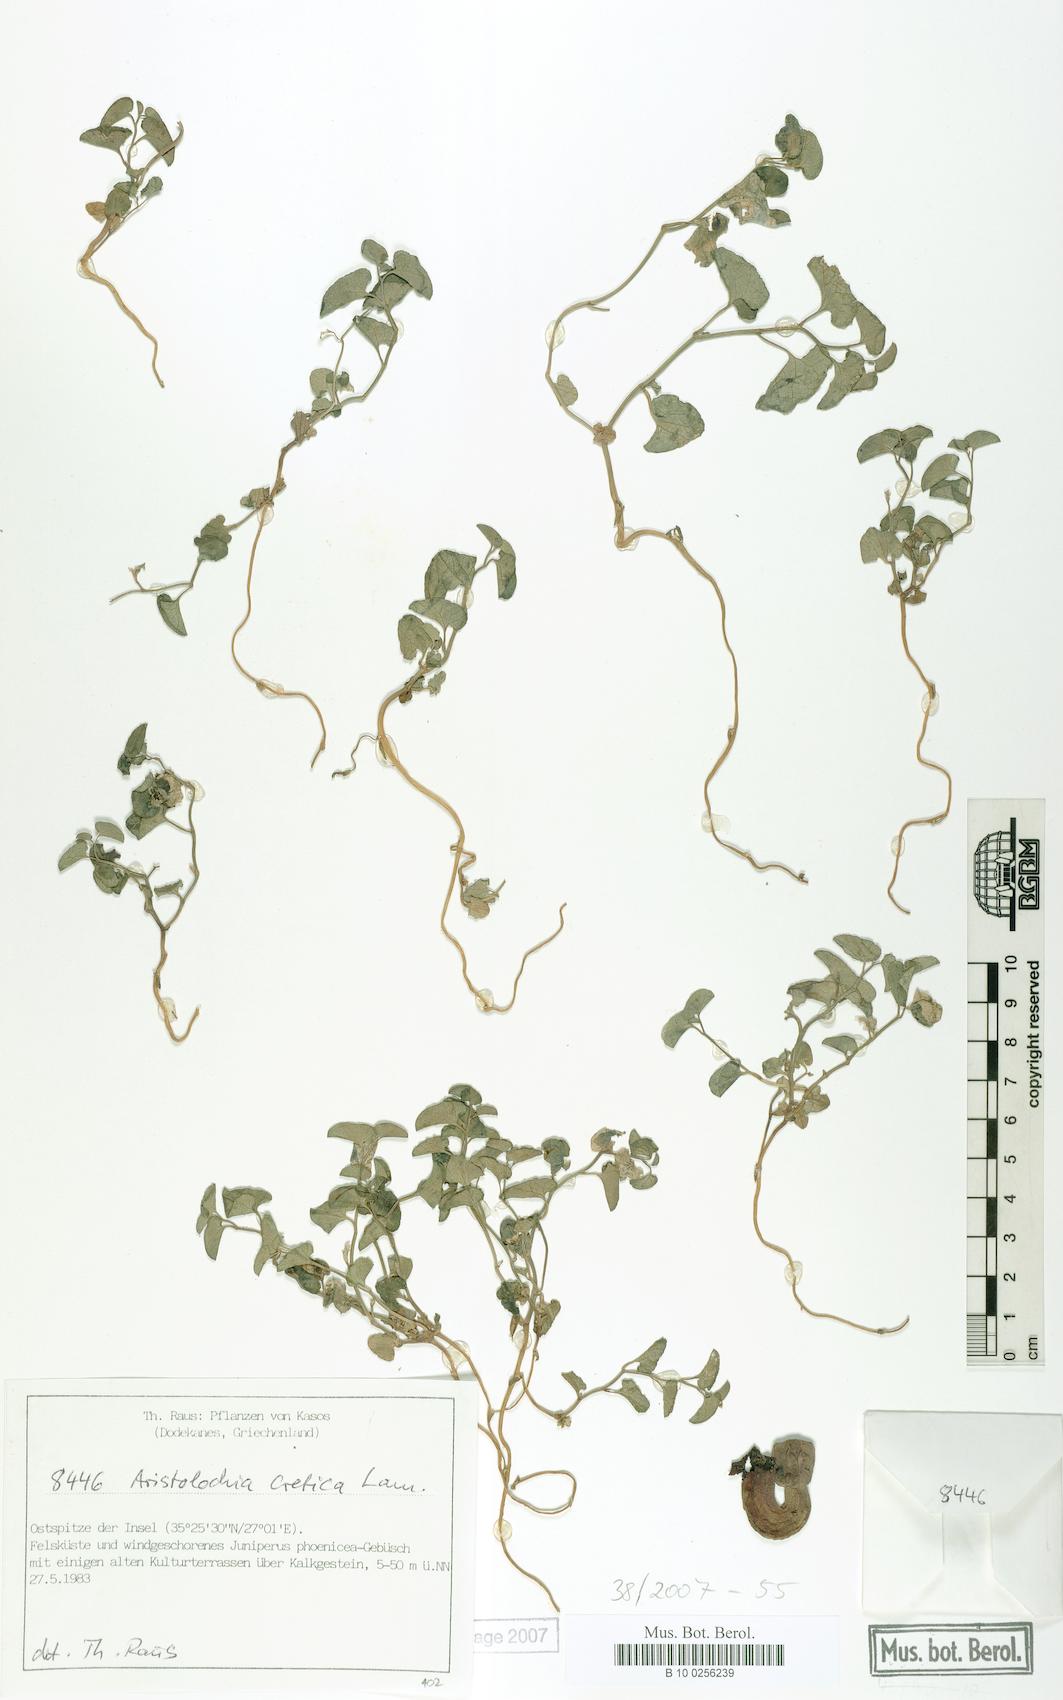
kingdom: Plantae
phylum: Tracheophyta
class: Magnoliopsida
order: Piperales
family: Aristolochiaceae
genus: Aristolochia
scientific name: Aristolochia cretica
